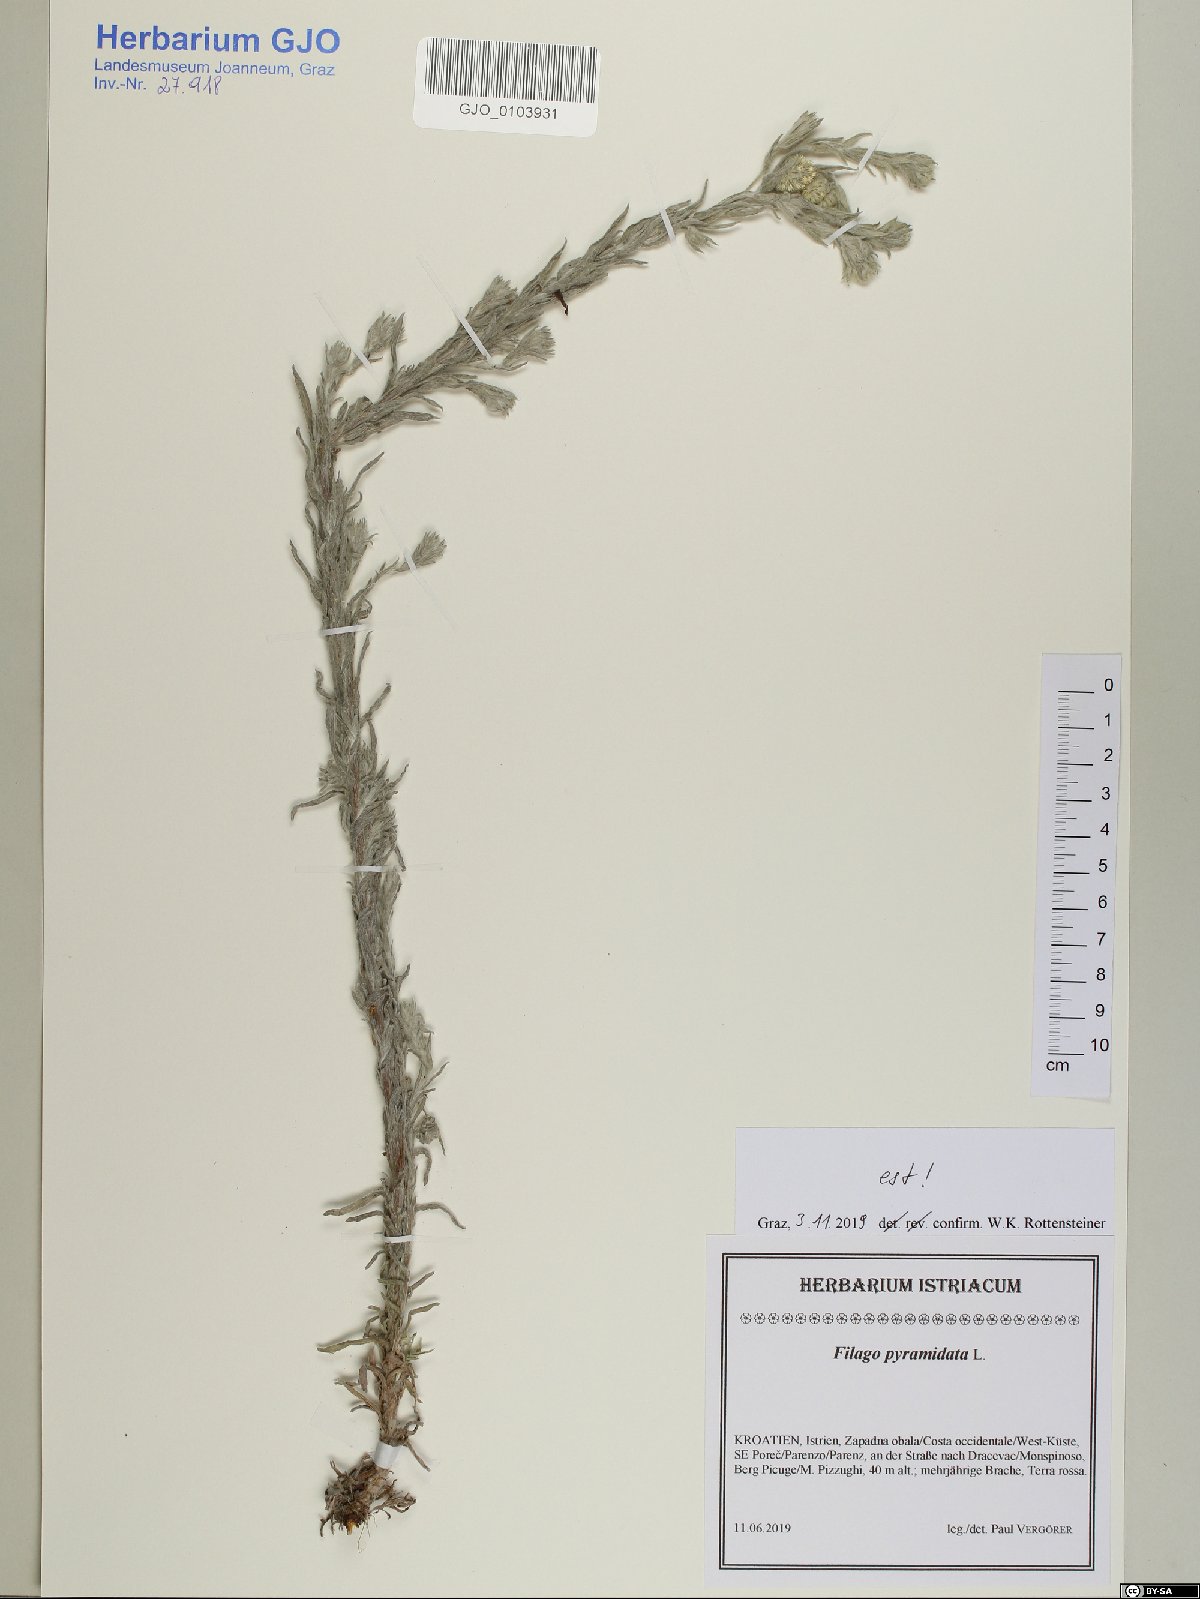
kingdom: Plantae
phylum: Tracheophyta
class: Magnoliopsida
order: Asterales
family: Asteraceae
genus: Filago
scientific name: Filago pyramidata
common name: Broad-leaved cudweed
